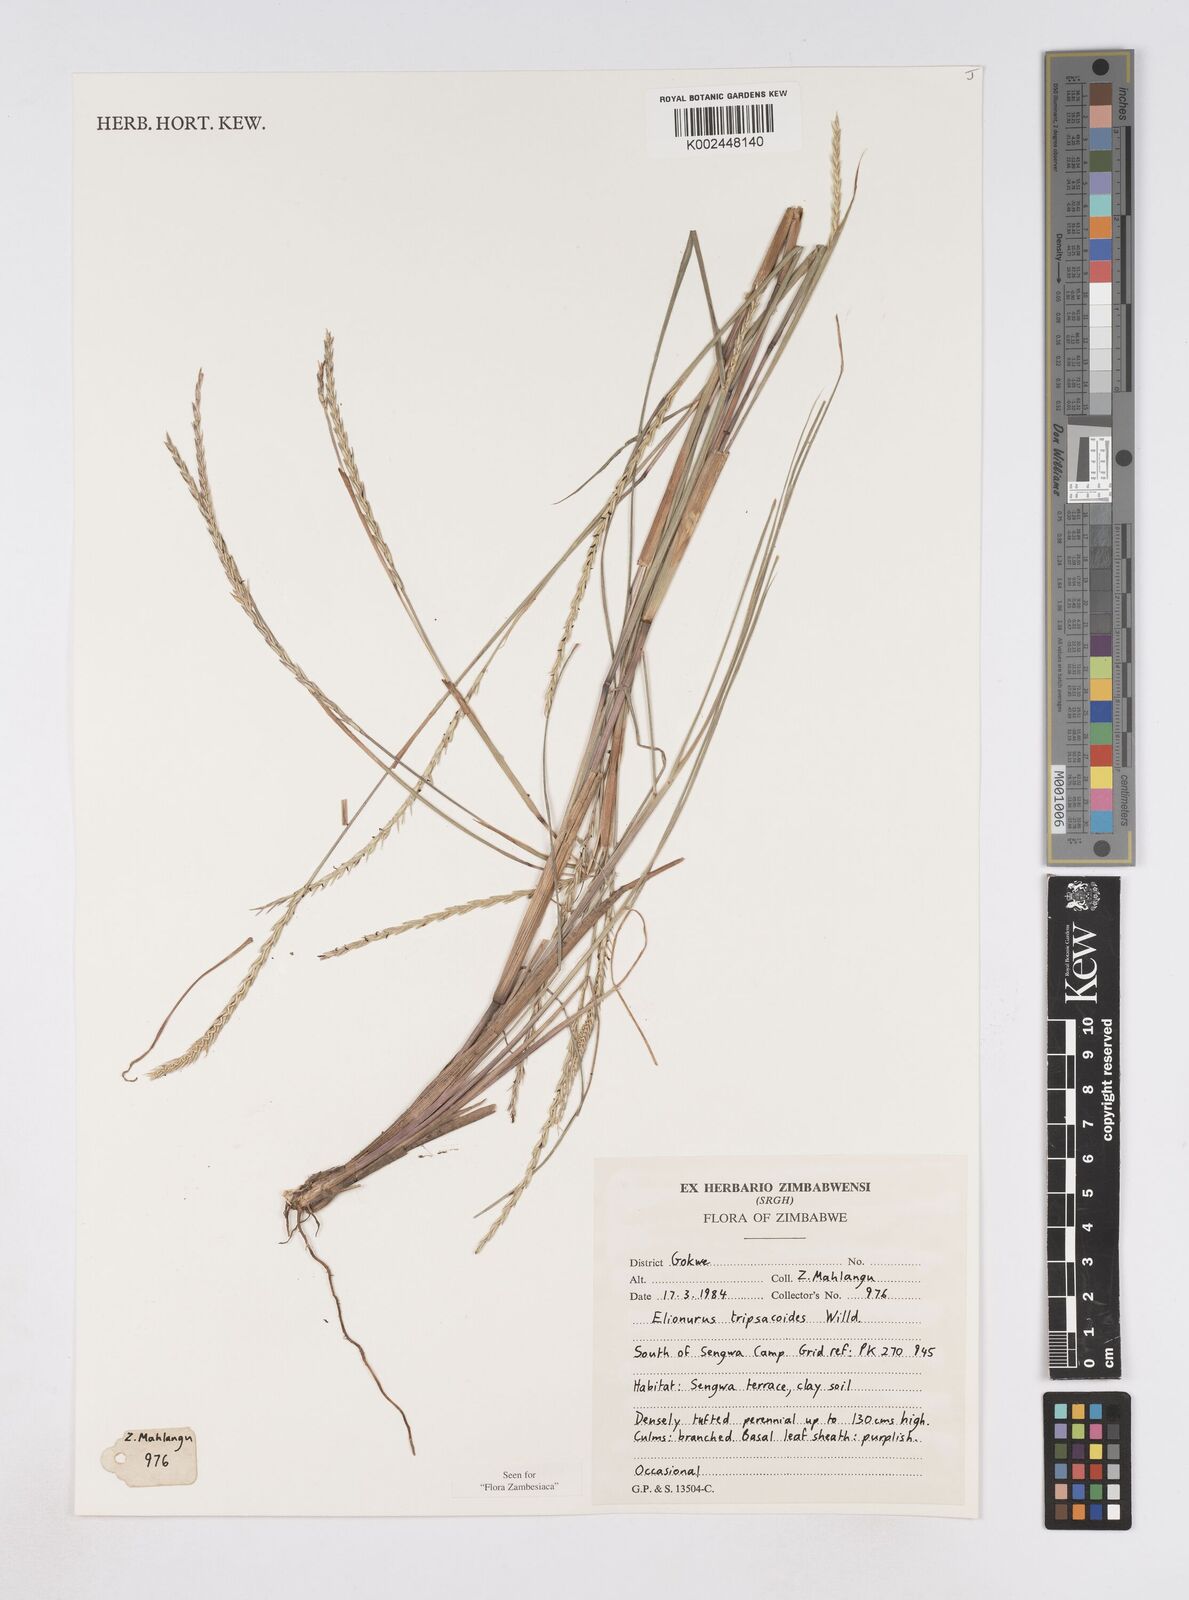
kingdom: Plantae
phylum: Tracheophyta
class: Liliopsida
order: Poales
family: Poaceae
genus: Elionurus
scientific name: Elionurus tripsacoides
